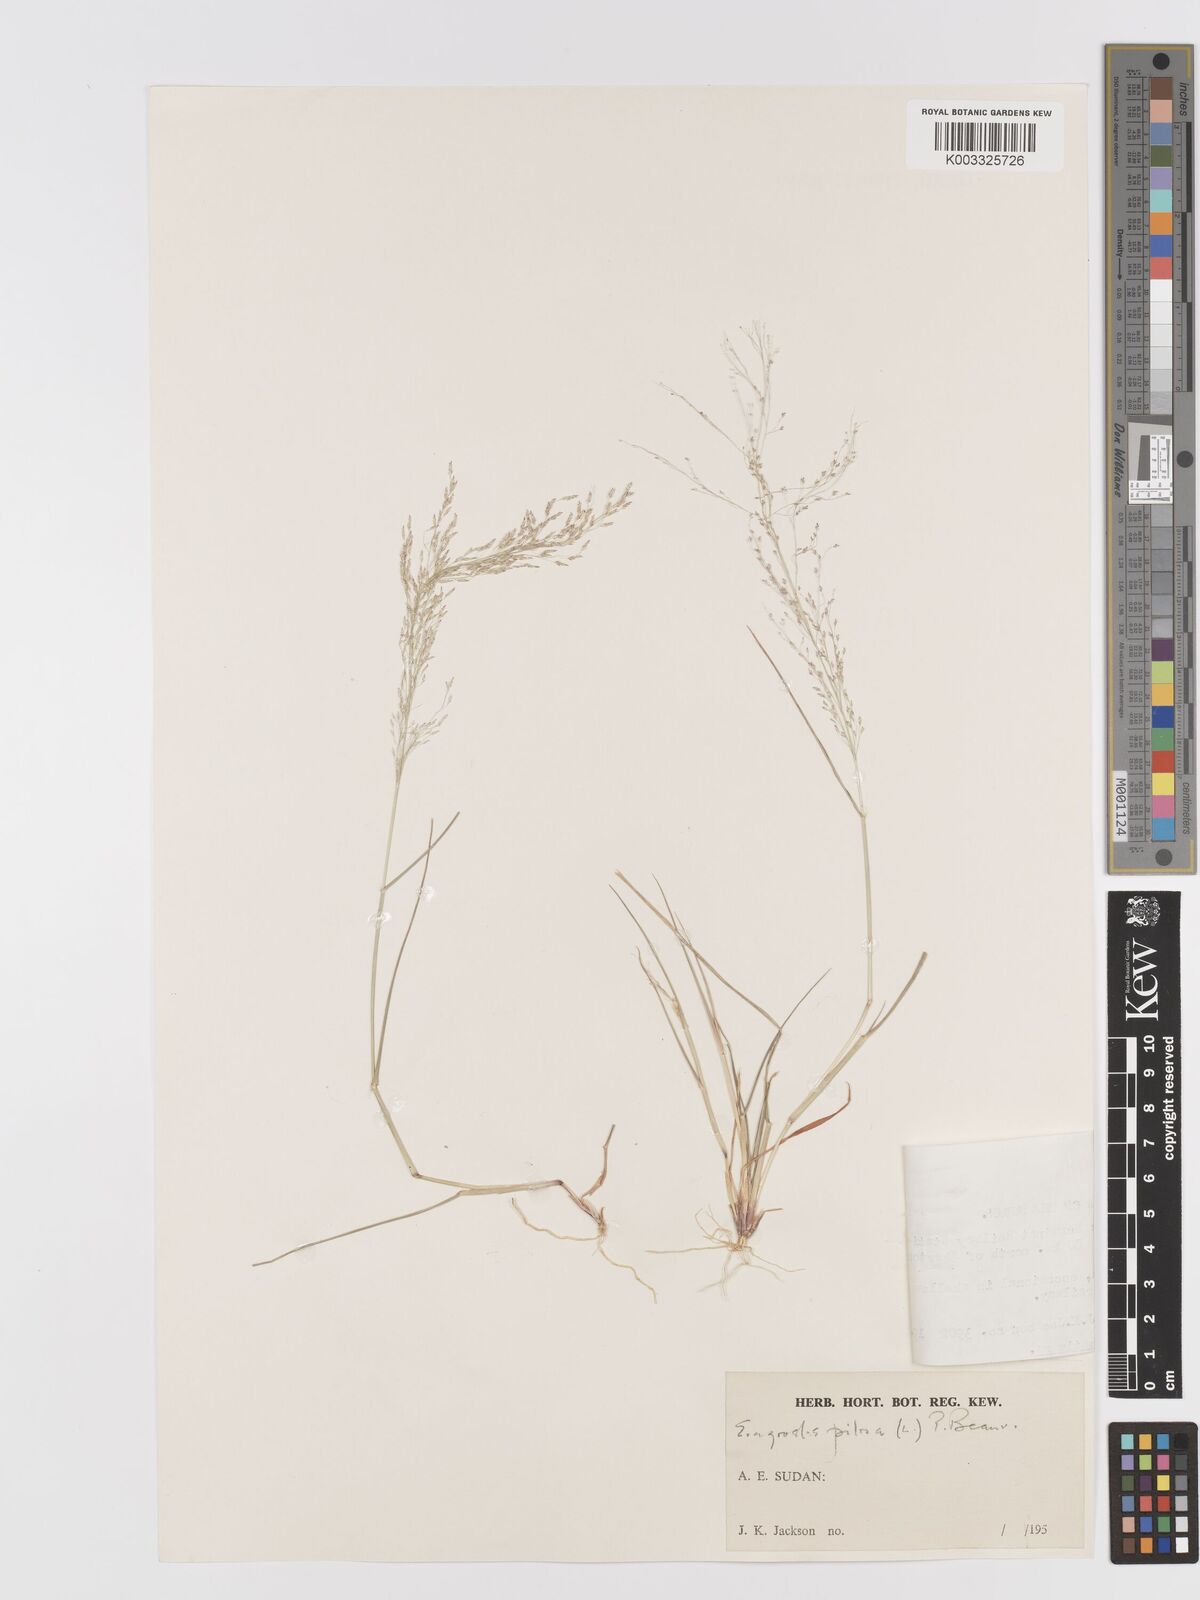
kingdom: Plantae
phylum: Tracheophyta
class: Liliopsida
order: Poales
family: Poaceae
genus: Eragrostis
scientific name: Eragrostis pilosa
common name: Indian lovegrass
